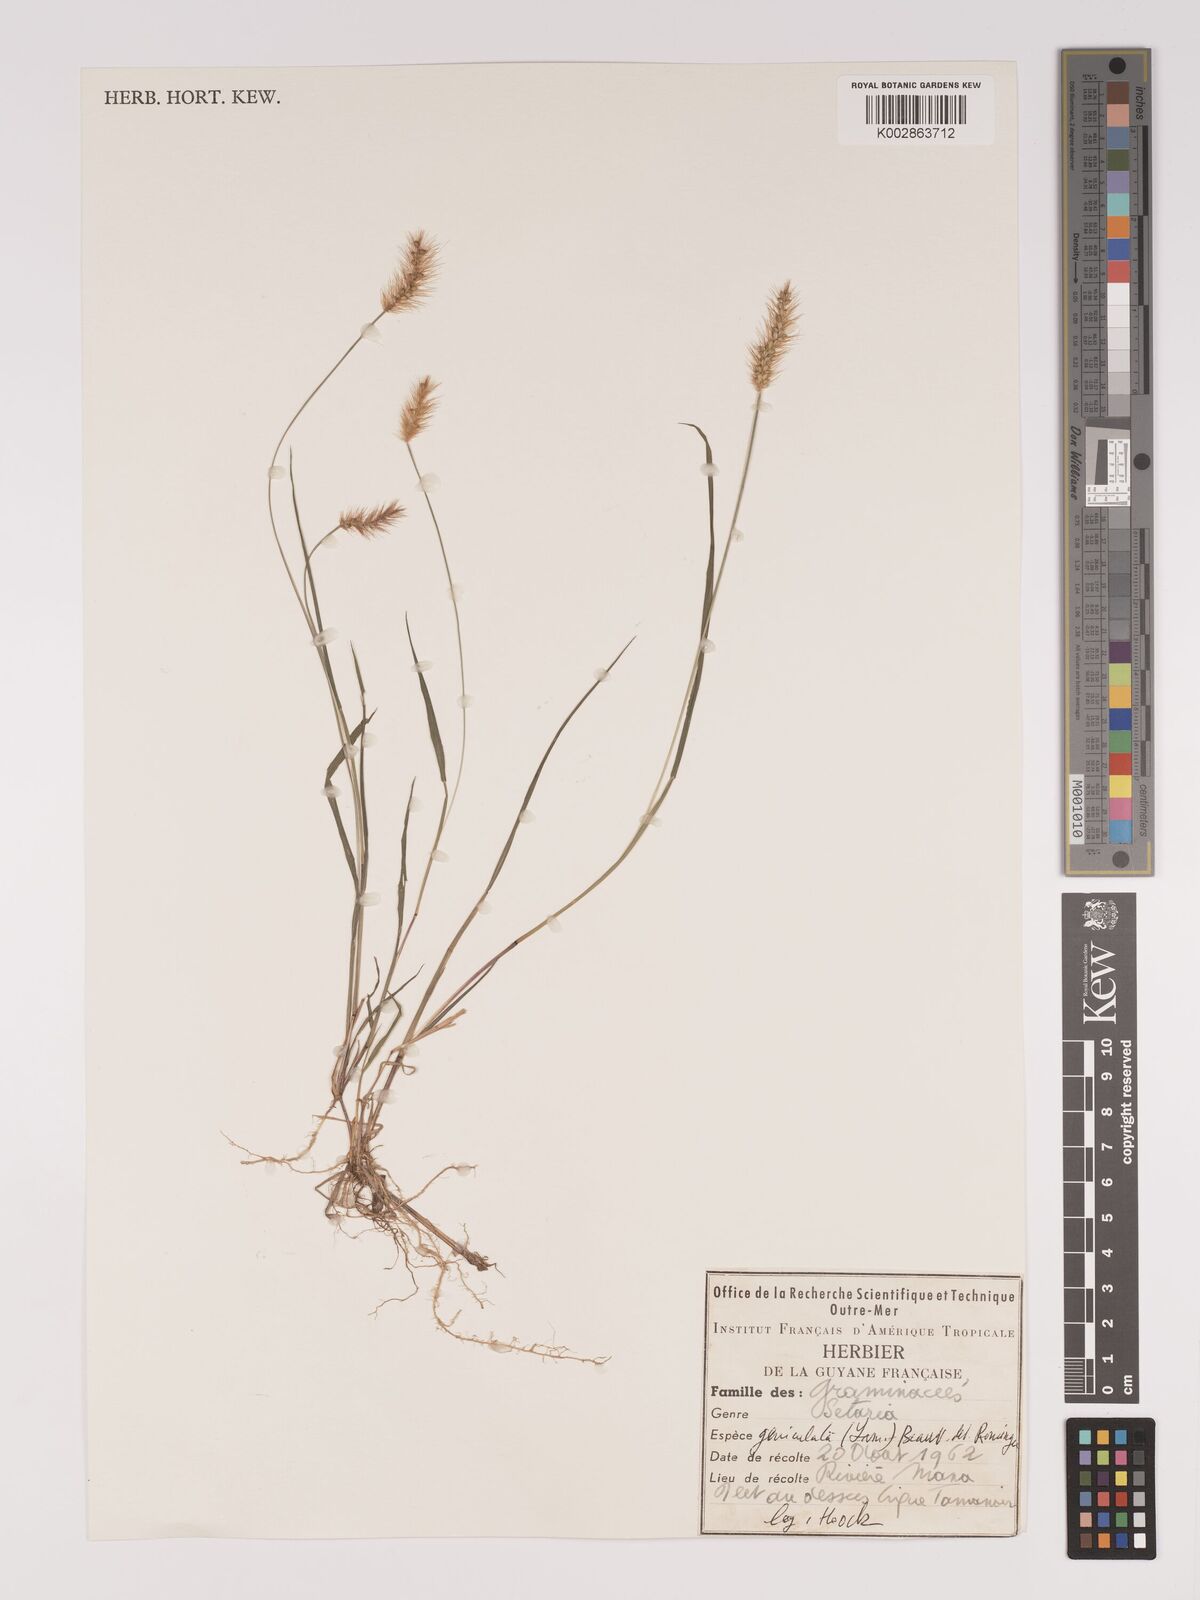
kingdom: Plantae
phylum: Tracheophyta
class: Liliopsida
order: Poales
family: Poaceae
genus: Setaria
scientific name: Setaria parviflora
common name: Knotroot bristle-grass
